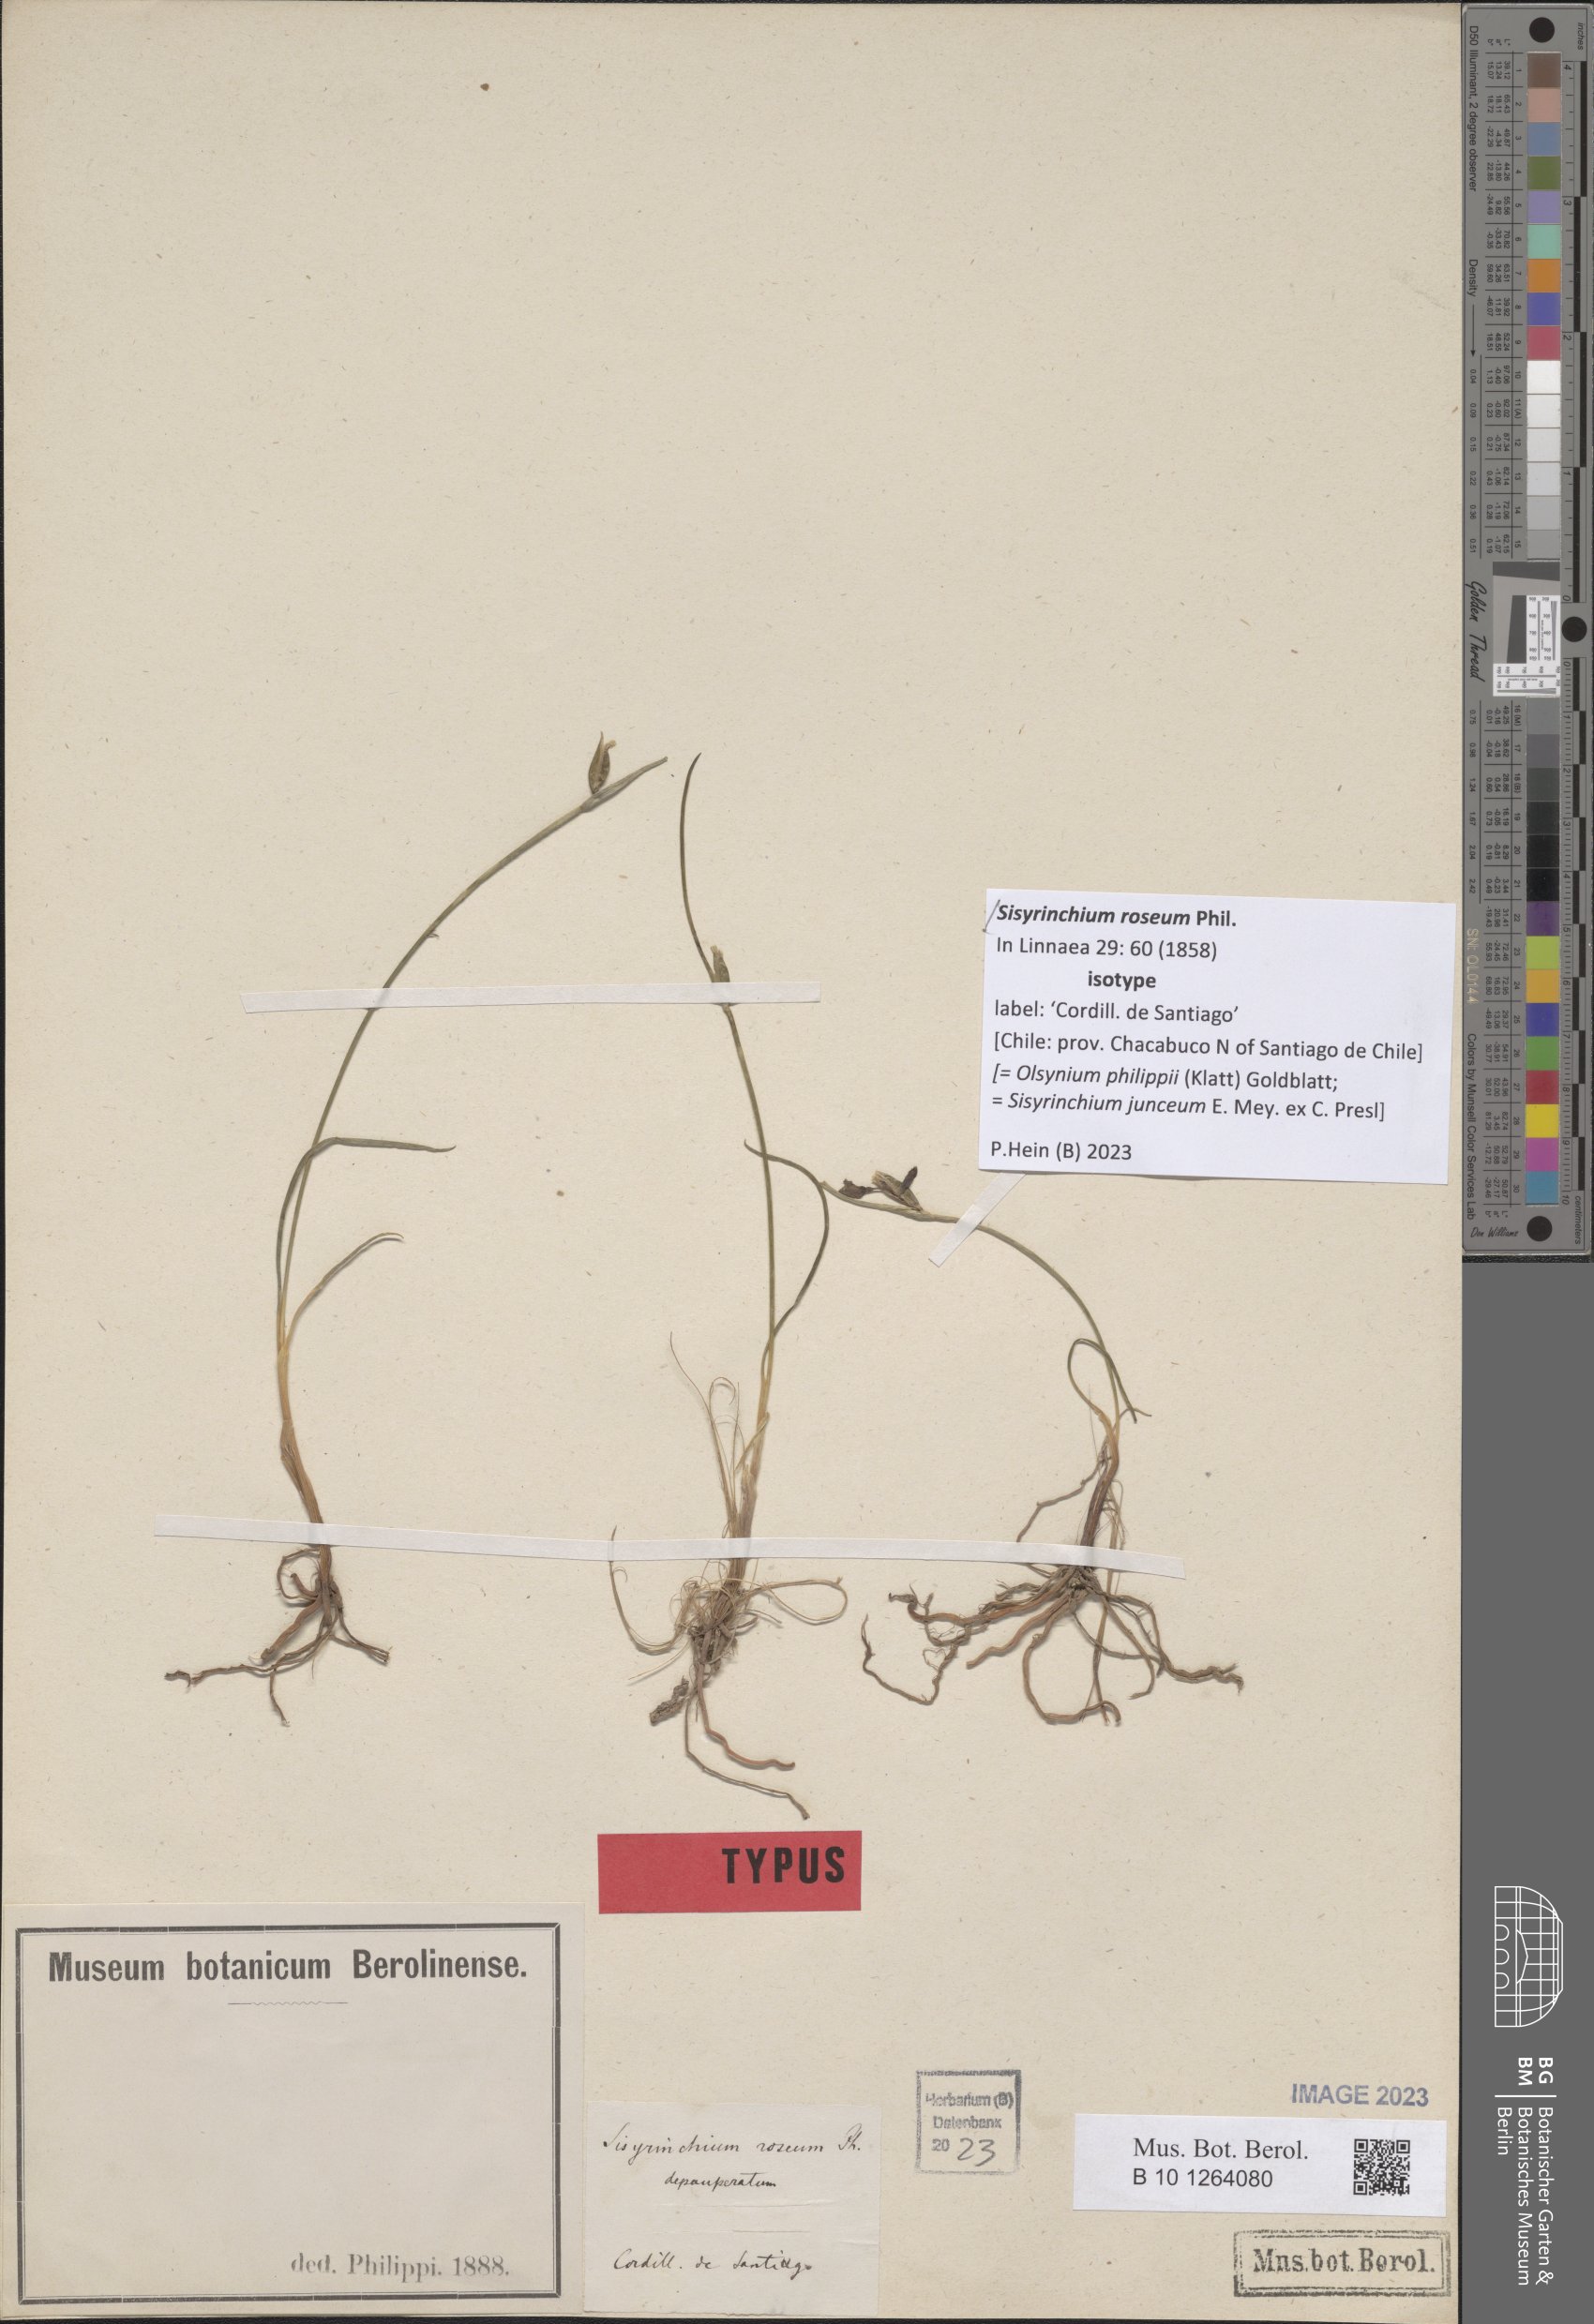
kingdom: Plantae
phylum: Tracheophyta
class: Liliopsida
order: Asparagales
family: Iridaceae
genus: Olsynium
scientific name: Olsynium philippii
